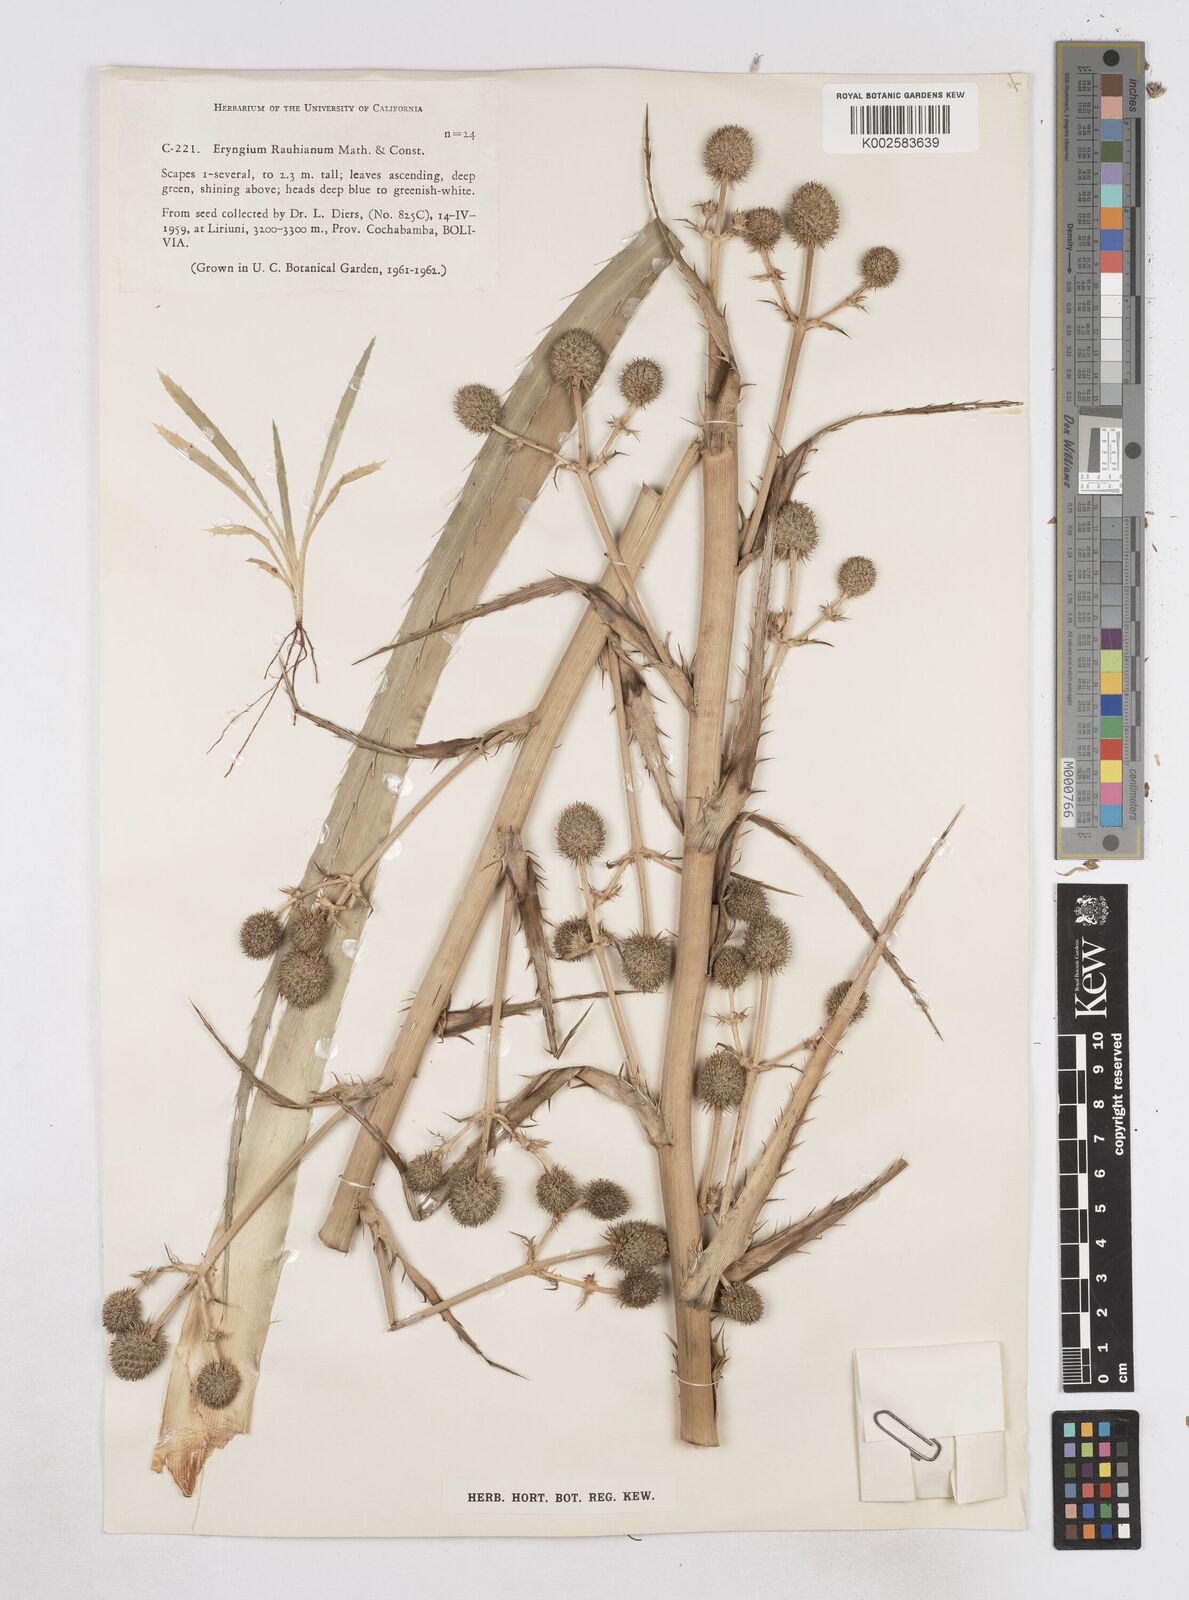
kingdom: Plantae
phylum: Tracheophyta
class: Magnoliopsida
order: Apiales
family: Apiaceae
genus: Eryngium
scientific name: Eryngium rauhianum
